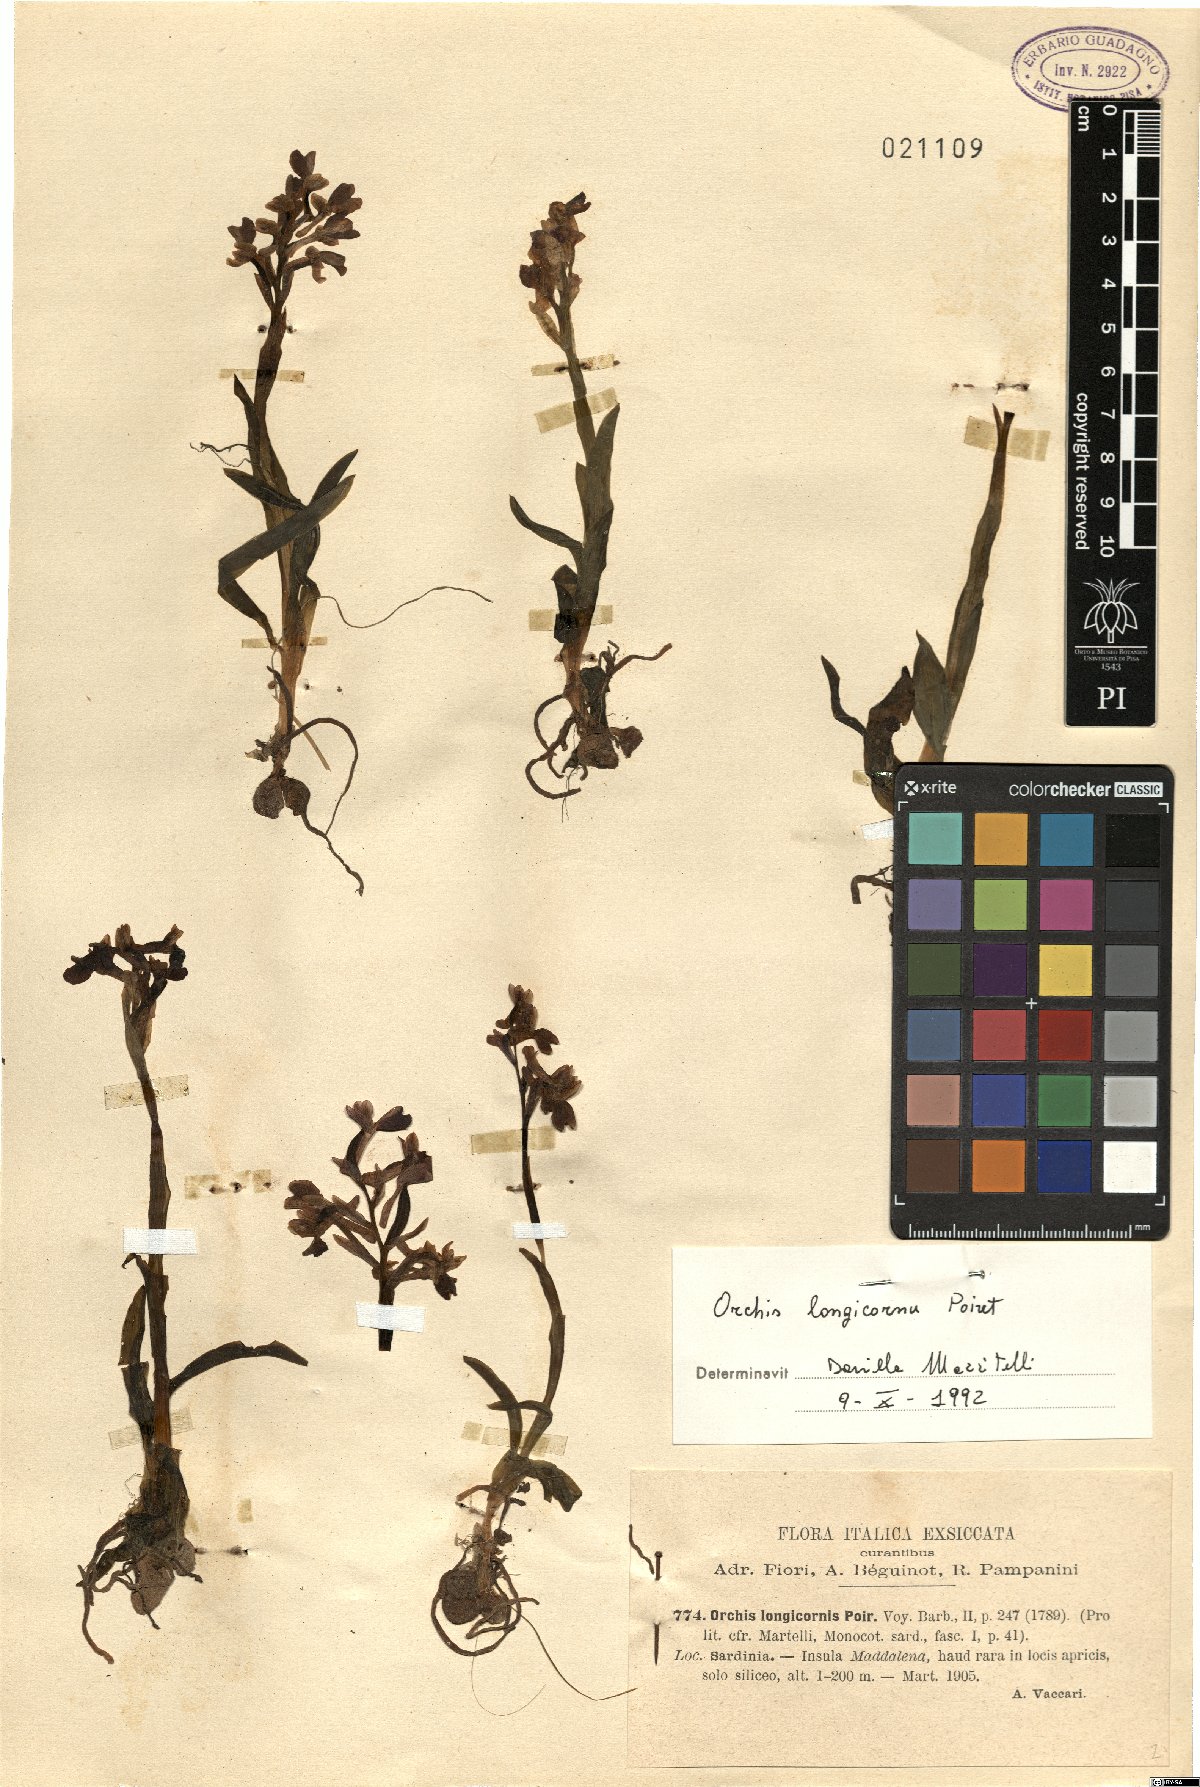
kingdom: Plantae
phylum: Tracheophyta
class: Liliopsida
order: Asparagales
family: Orchidaceae
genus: Anacamptis
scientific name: Anacamptis morio
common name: Green-winged orchid
